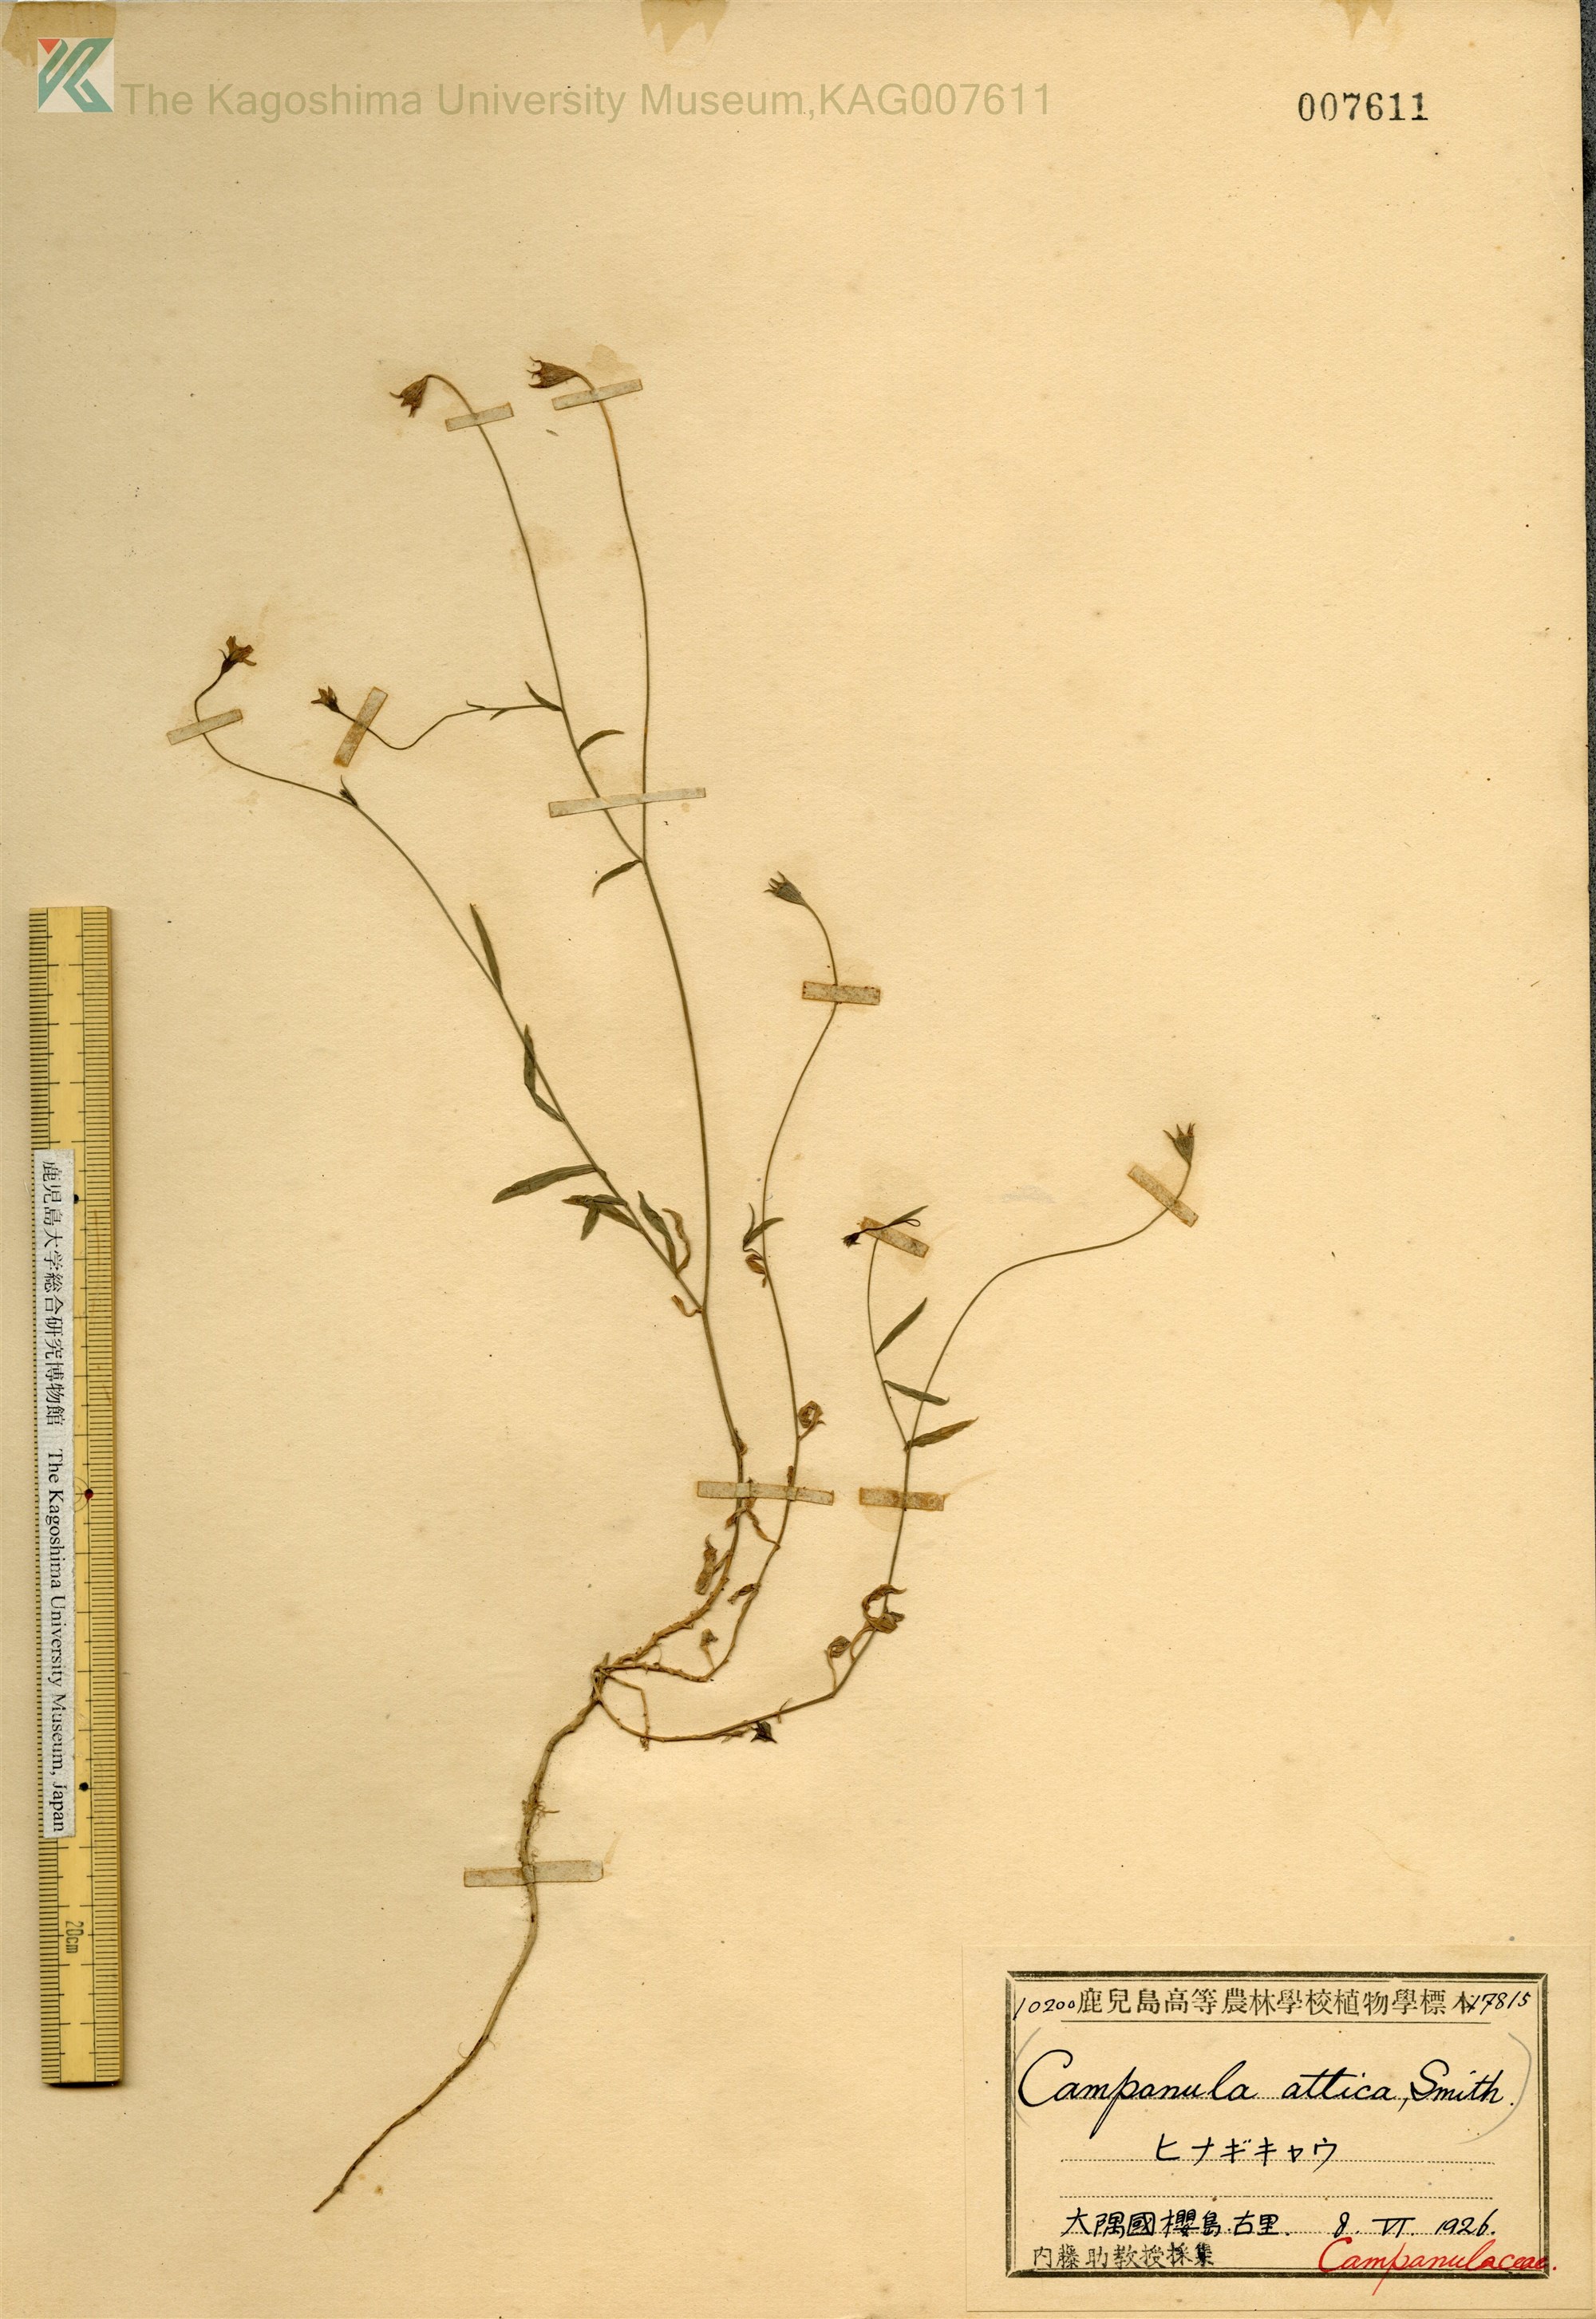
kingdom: Plantae
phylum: Tracheophyta
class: Magnoliopsida
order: Asterales
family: Campanulaceae
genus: Wahlenbergia
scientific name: Wahlenbergia marginata
